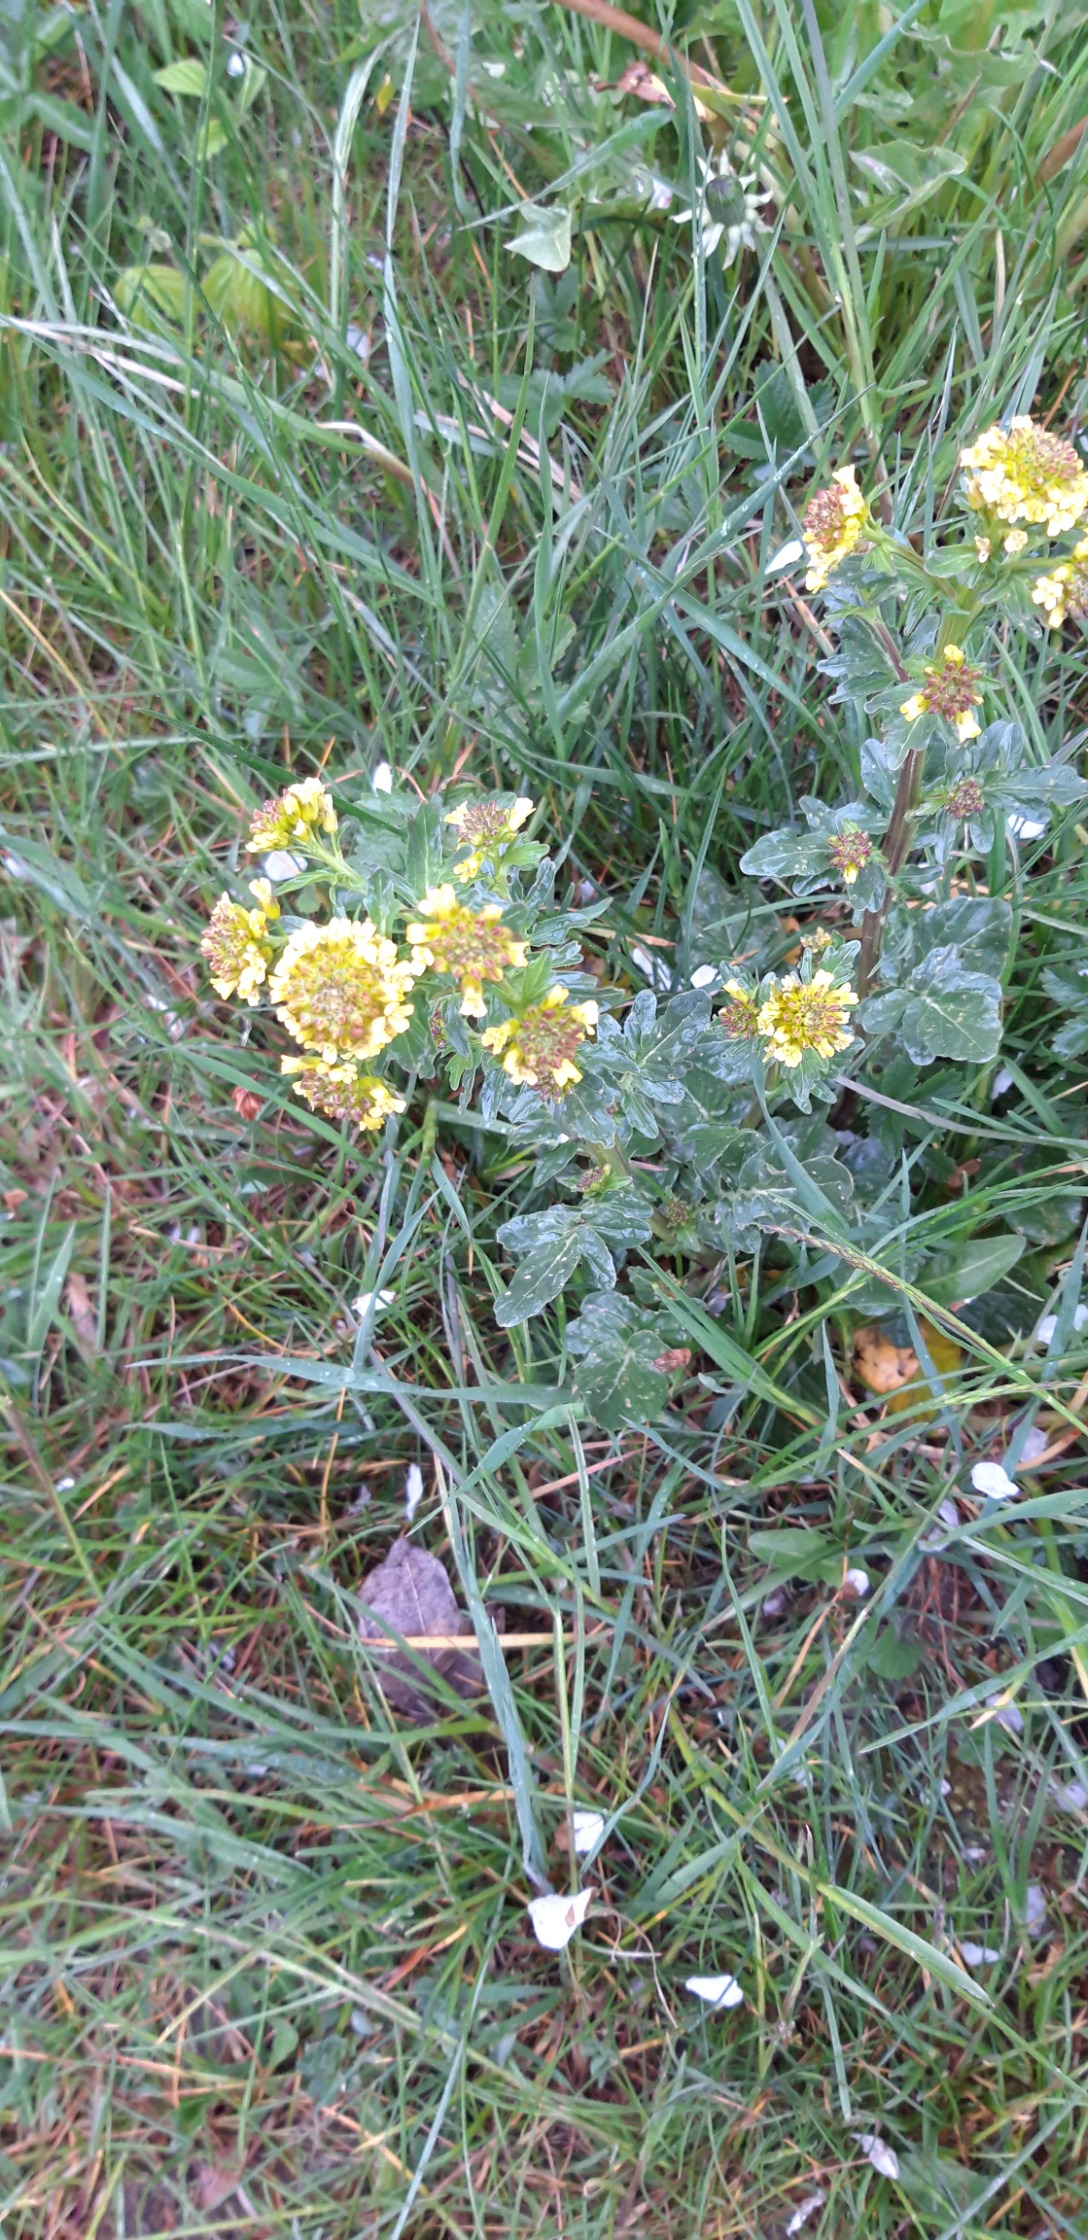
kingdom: Plantae
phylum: Tracheophyta
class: Magnoliopsida
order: Brassicales
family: Brassicaceae
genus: Barbarea
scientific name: Barbarea intermedia
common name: Randhåret vinterkarse
